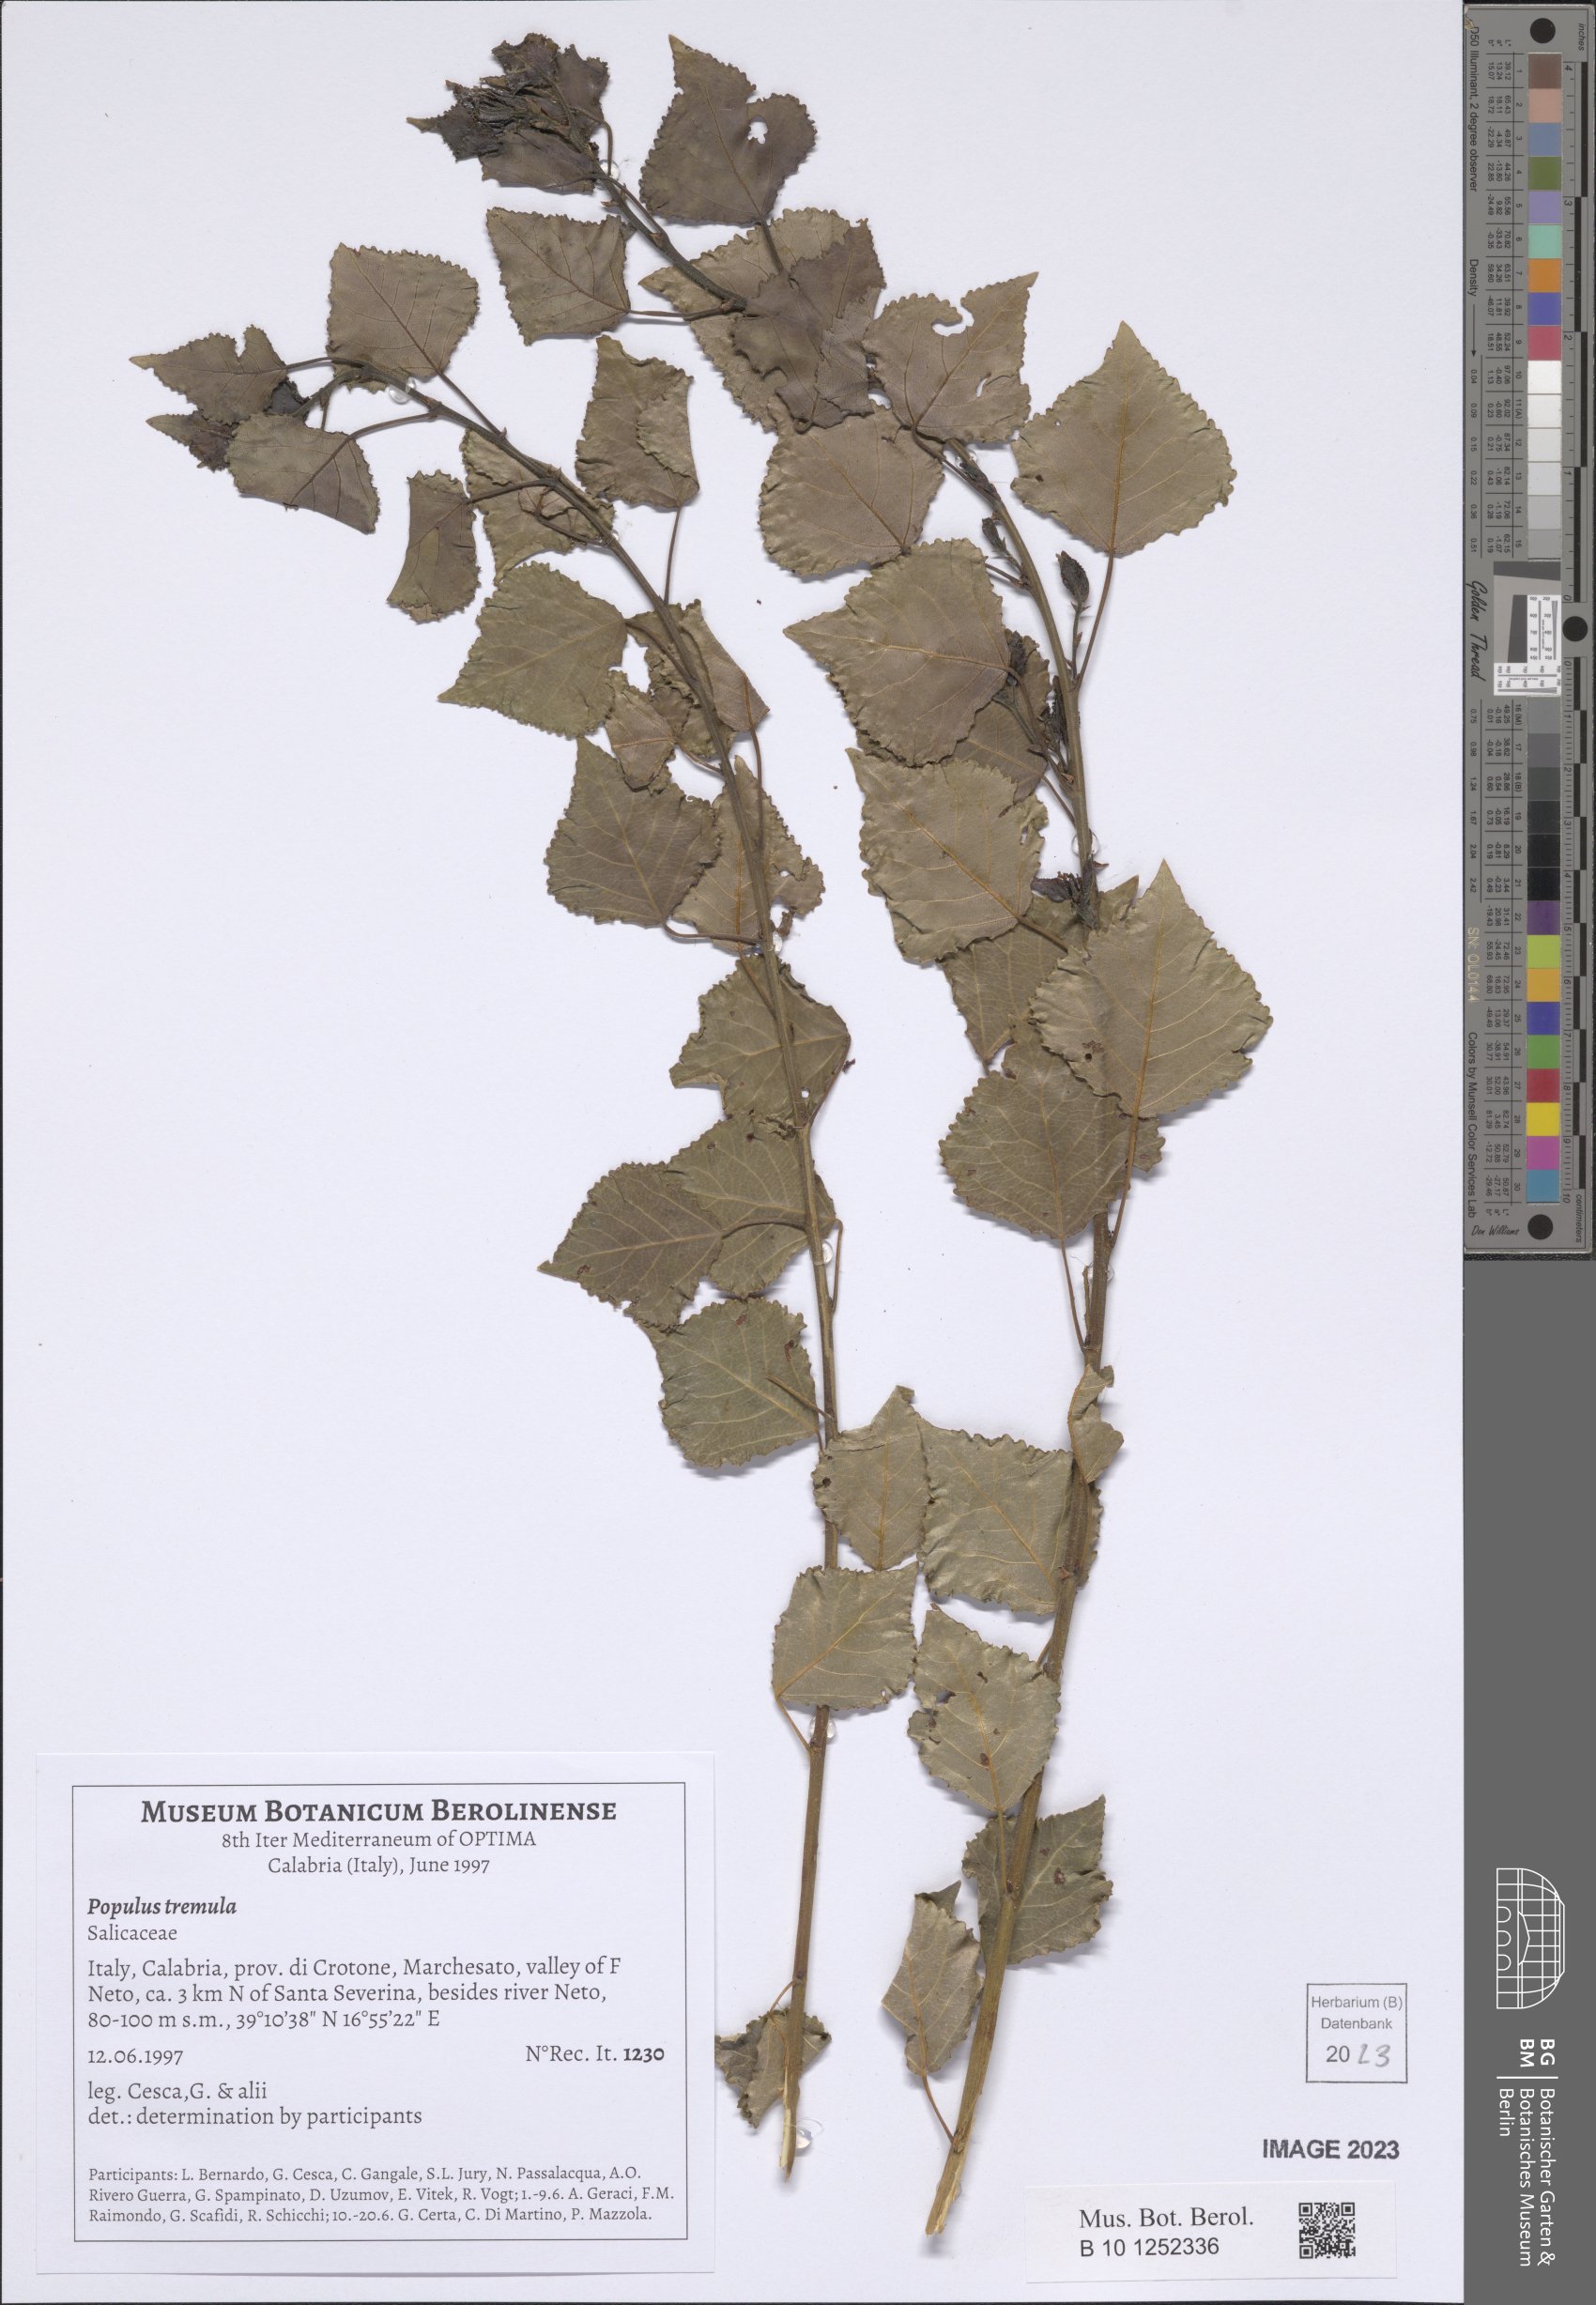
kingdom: Plantae
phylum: Tracheophyta
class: Magnoliopsida
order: Malpighiales
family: Salicaceae
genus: Populus
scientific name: Populus tremula
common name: European aspen
